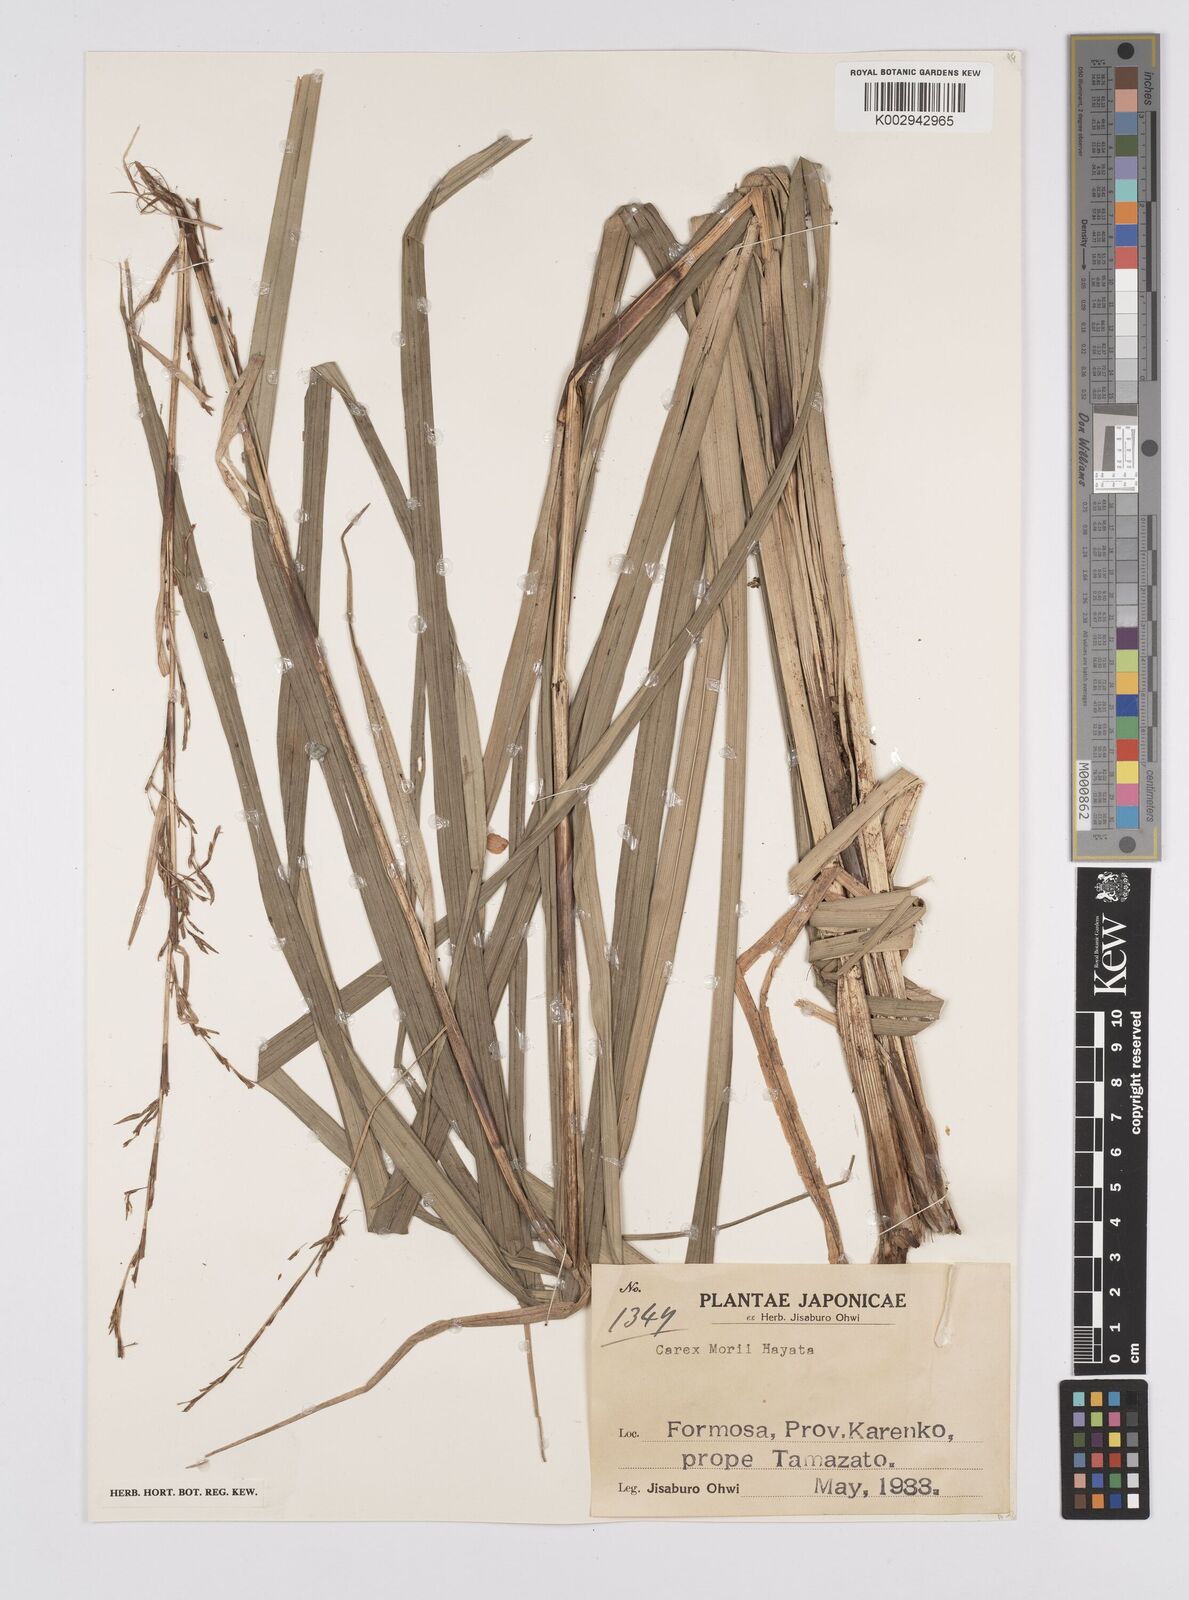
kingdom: Plantae
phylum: Tracheophyta
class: Liliopsida
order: Poales
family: Cyperaceae
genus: Carex
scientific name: Carex morii
